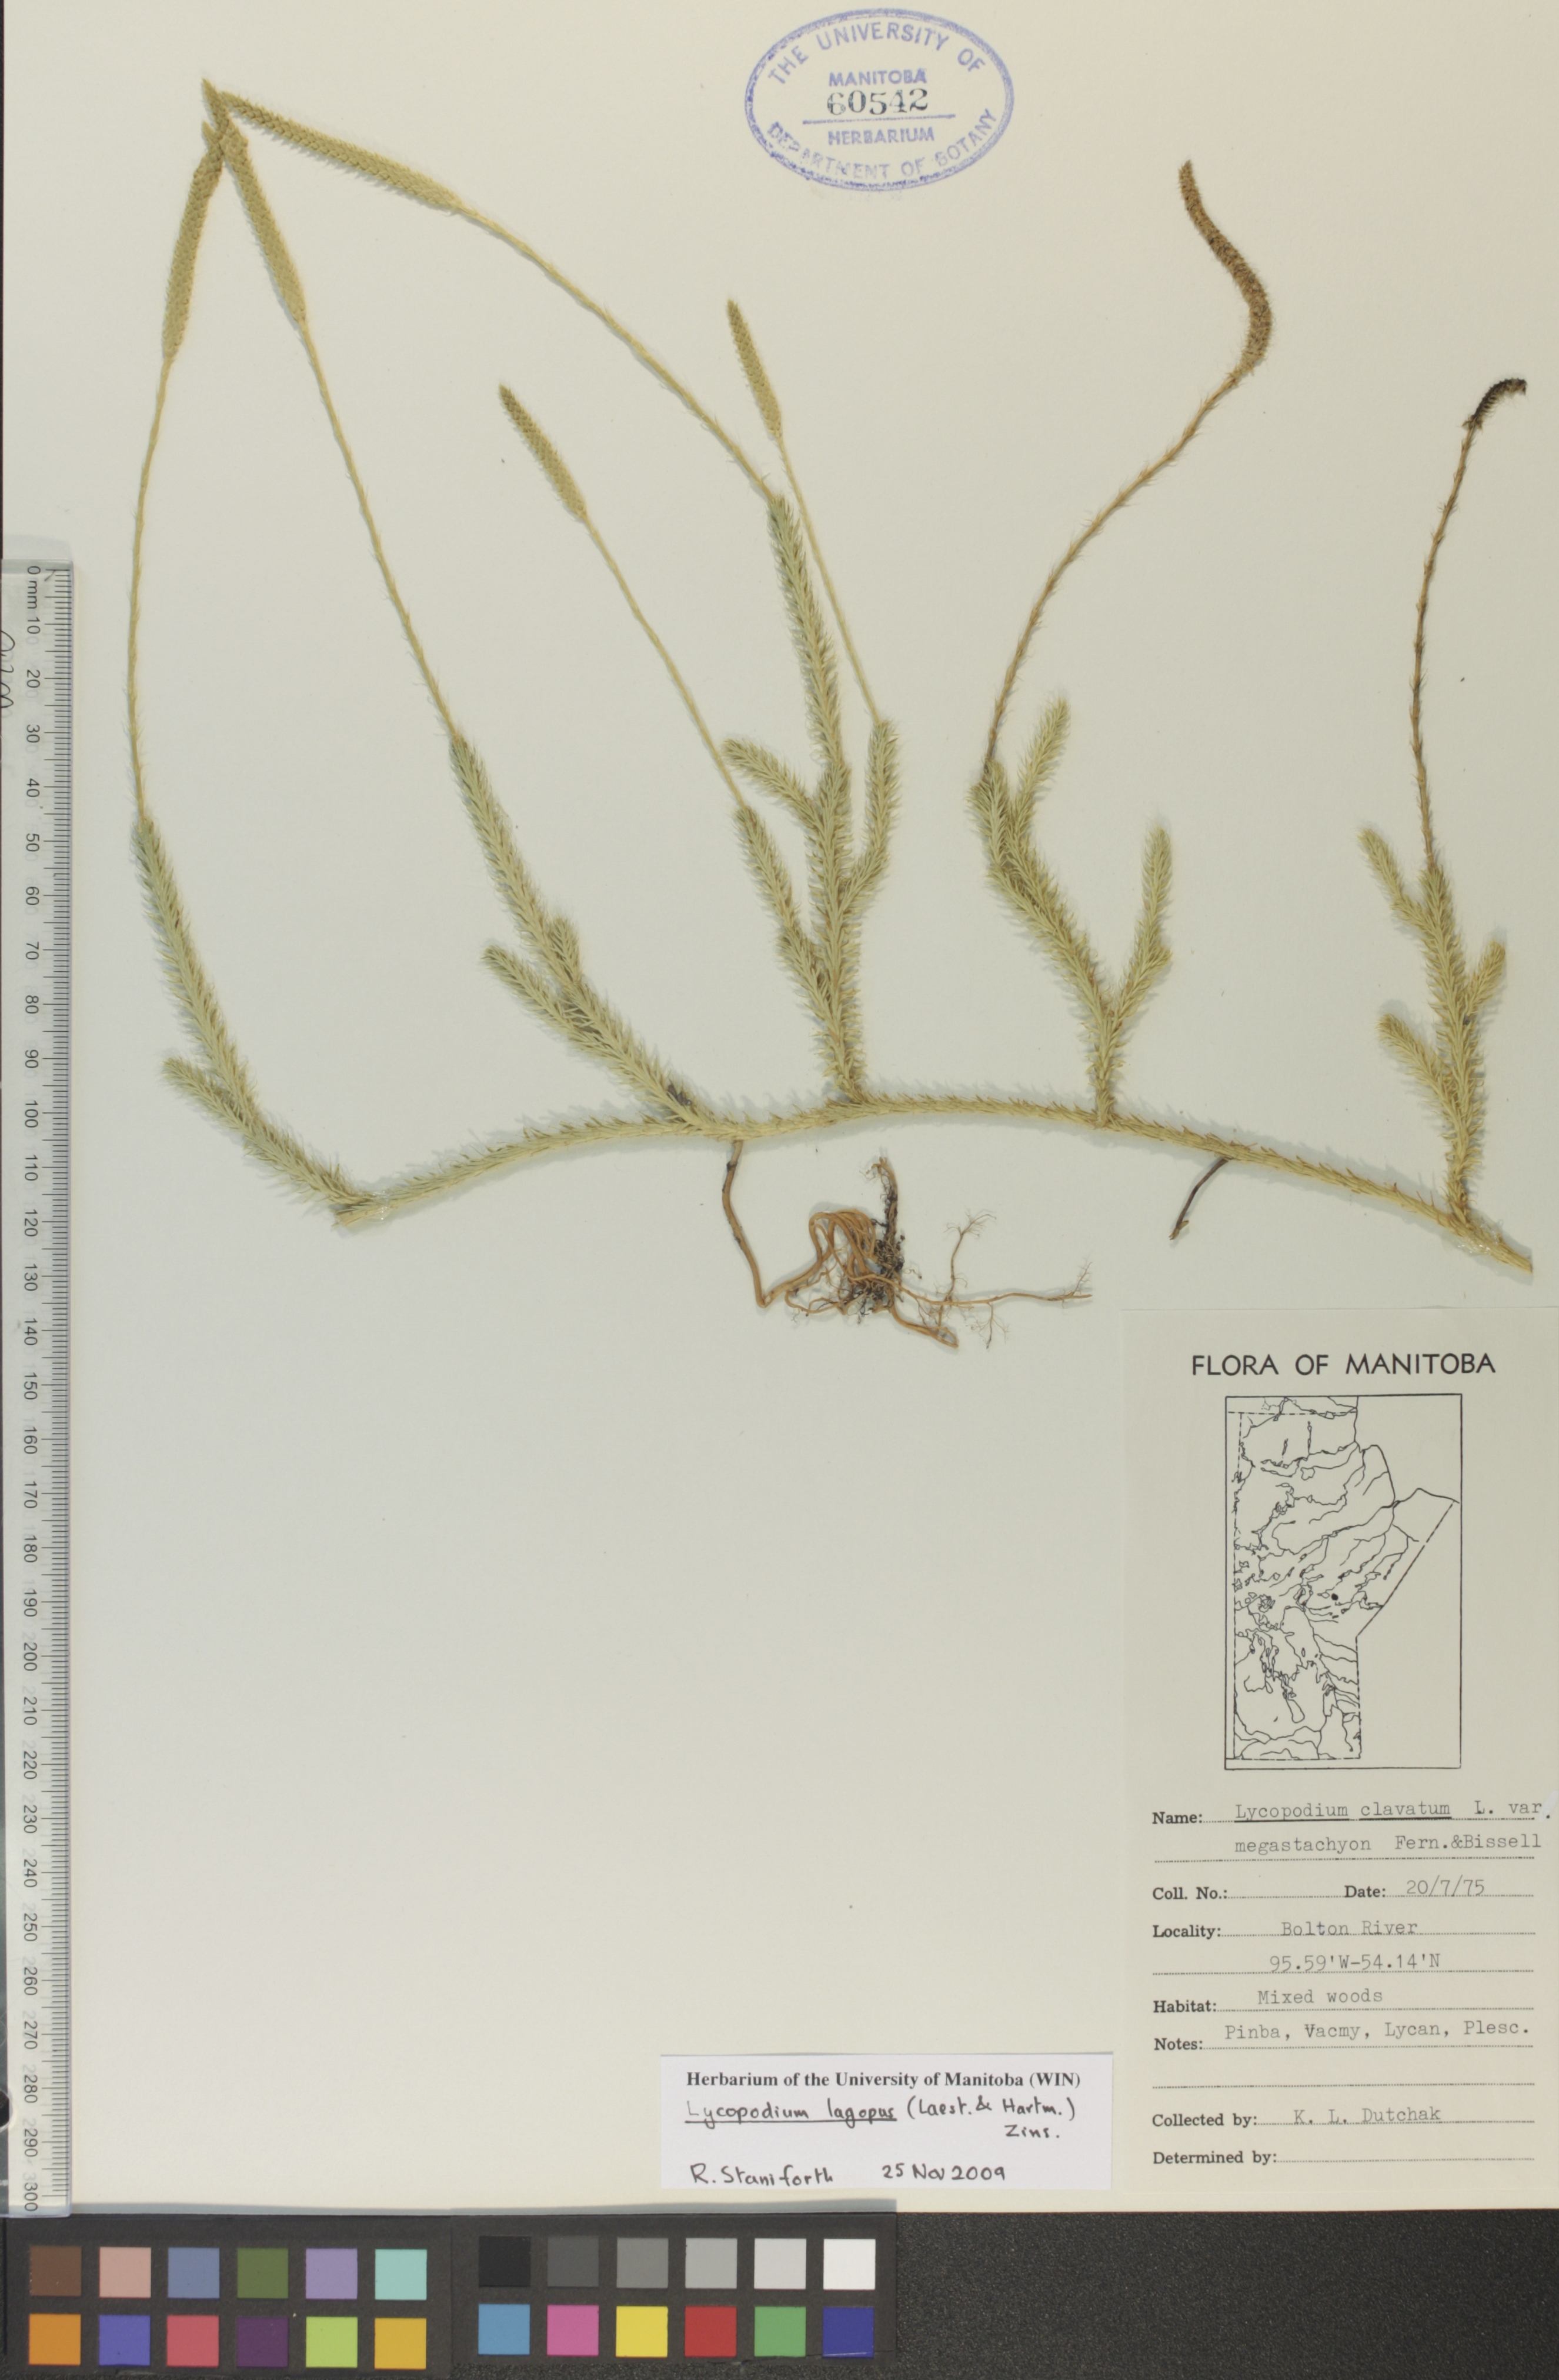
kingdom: Plantae
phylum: Tracheophyta
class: Lycopodiopsida
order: Lycopodiales
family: Lycopodiaceae
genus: Lycopodium
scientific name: Lycopodium lagopus
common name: One-cone clubmoss
